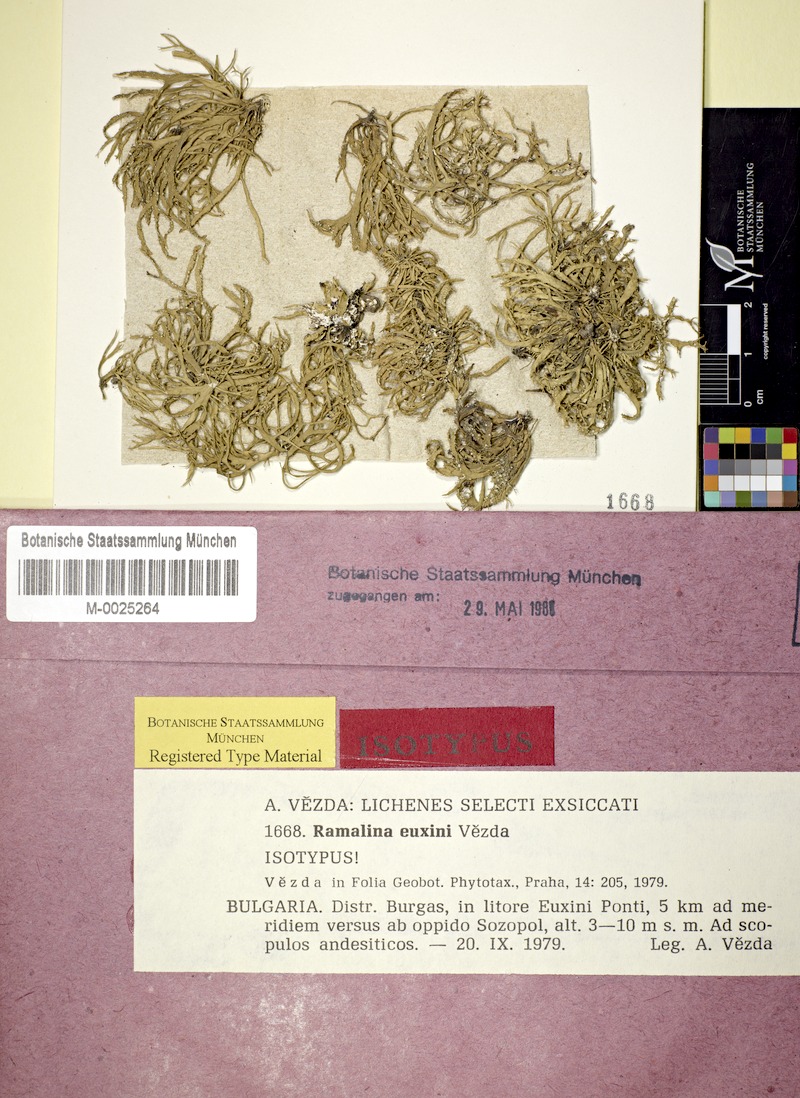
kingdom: Fungi
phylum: Ascomycota
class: Lecanoromycetes
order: Lecanorales
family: Ramalinaceae
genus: Ramalina
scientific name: Ramalina euxini
